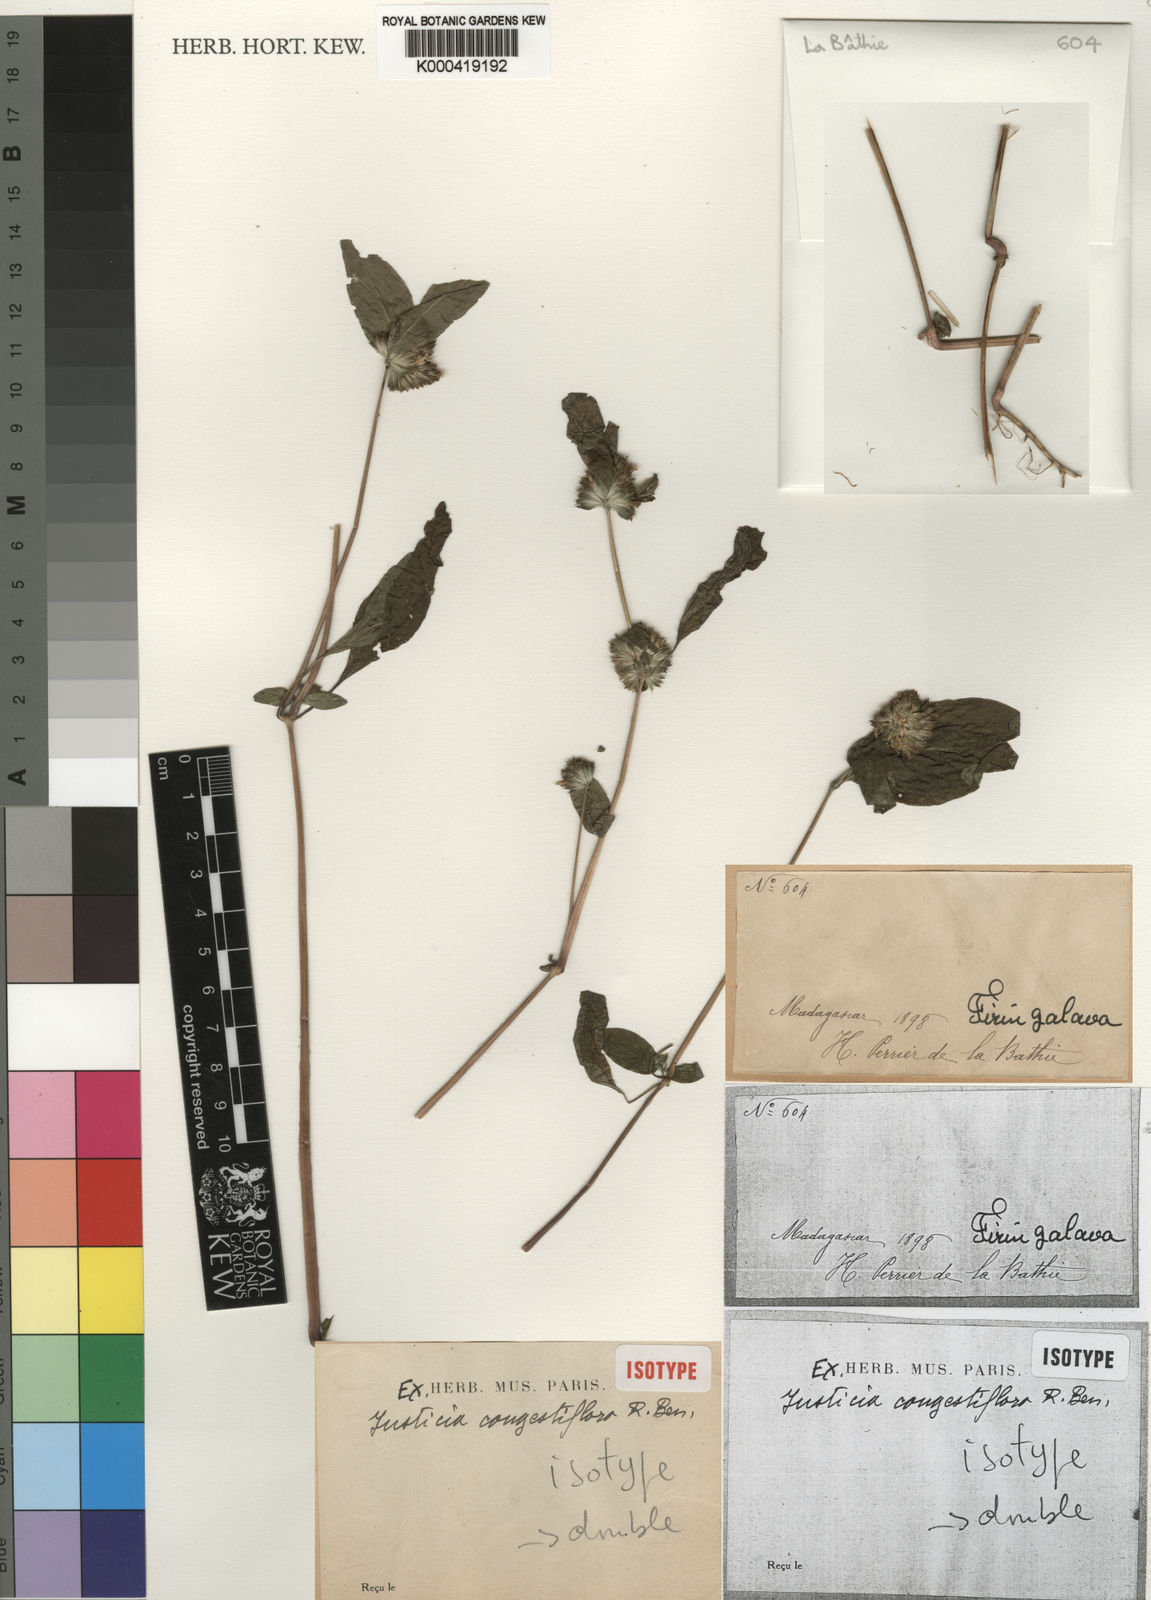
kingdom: Plantae
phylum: Tracheophyta
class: Magnoliopsida
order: Lamiales
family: Acanthaceae
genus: Justicia
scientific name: Justicia congestiflora
